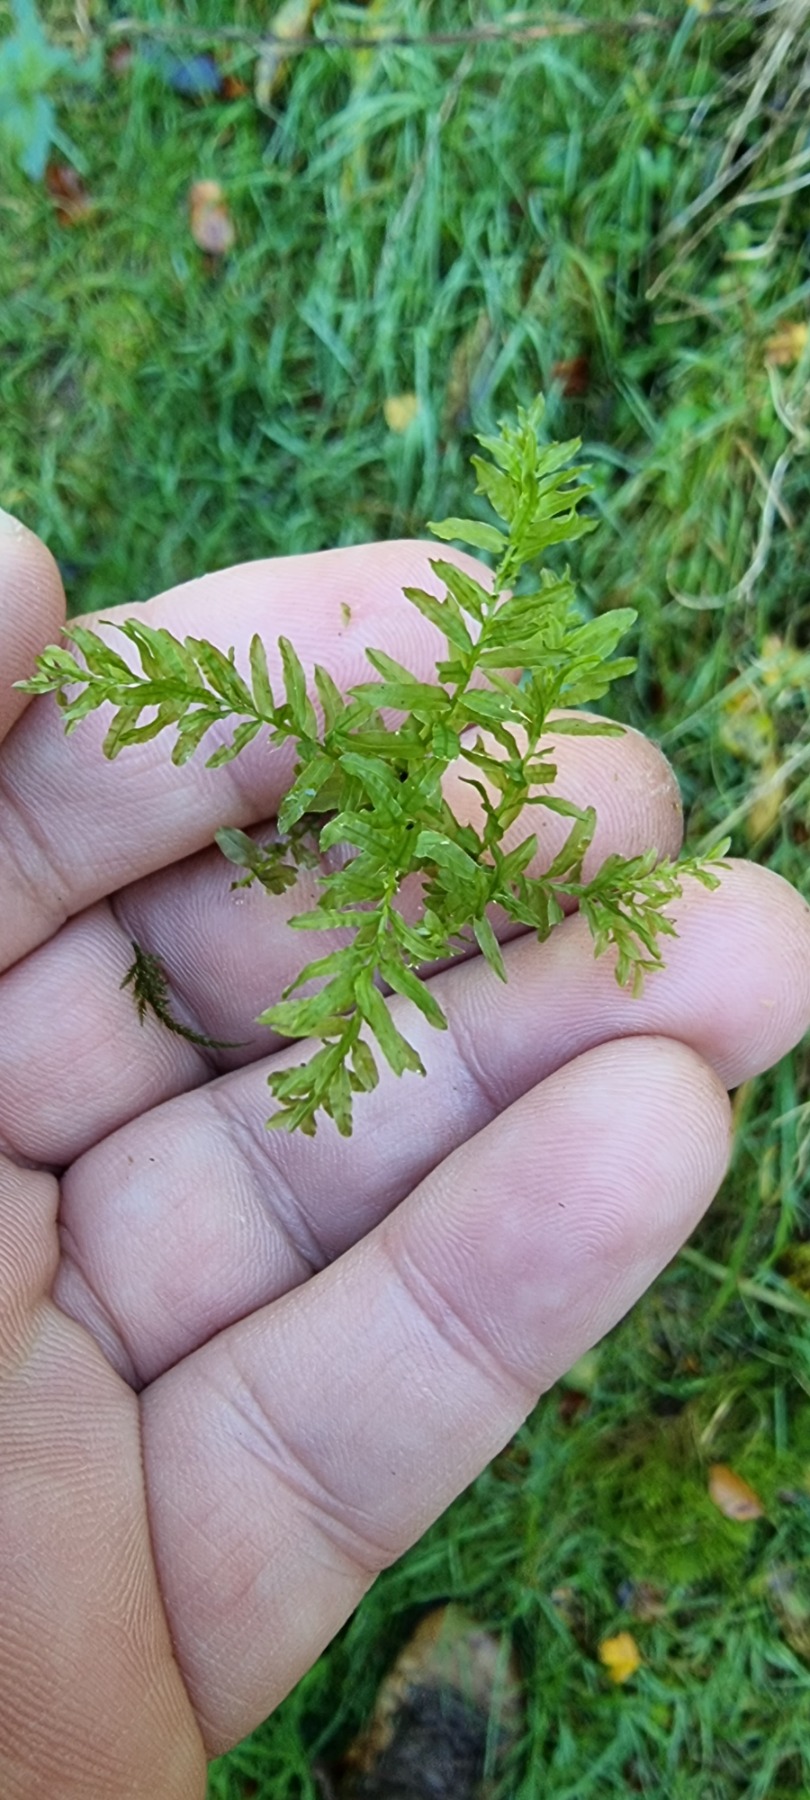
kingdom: Plantae
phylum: Bryophyta
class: Bryopsida
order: Bryales
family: Mniaceae
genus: Plagiomnium
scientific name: Plagiomnium undulatum
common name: Bølget krybstjerne
